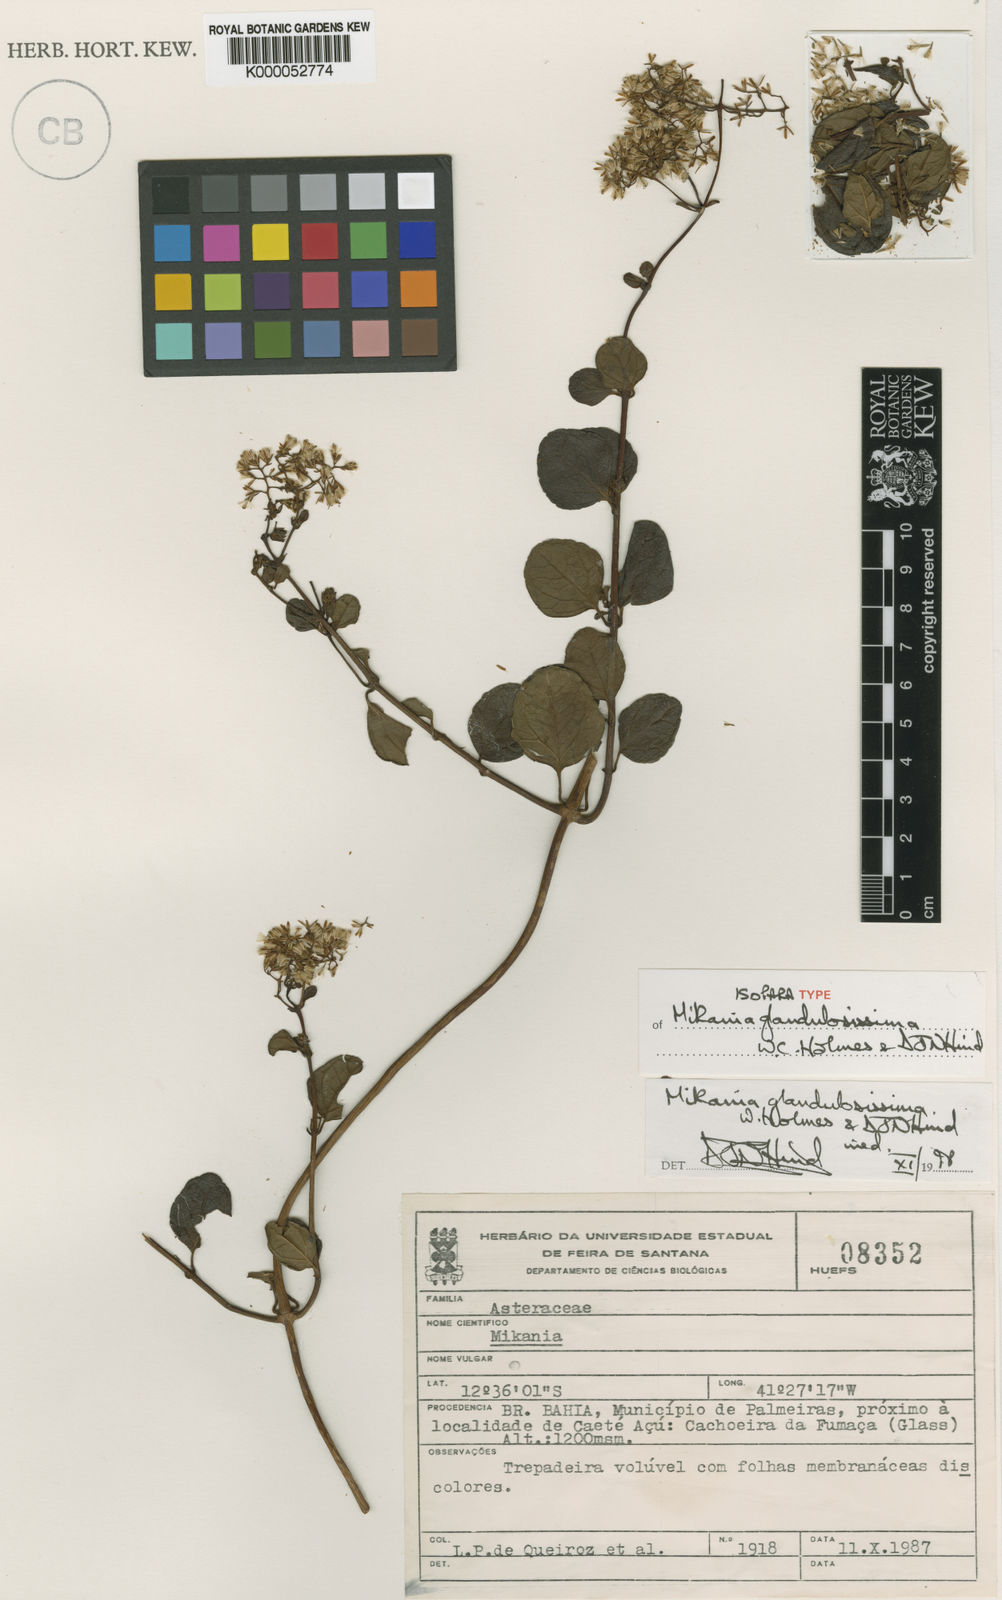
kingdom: Plantae
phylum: Tracheophyta
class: Magnoliopsida
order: Asterales
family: Asteraceae
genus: Mikania
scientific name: Mikania glandulosissima
